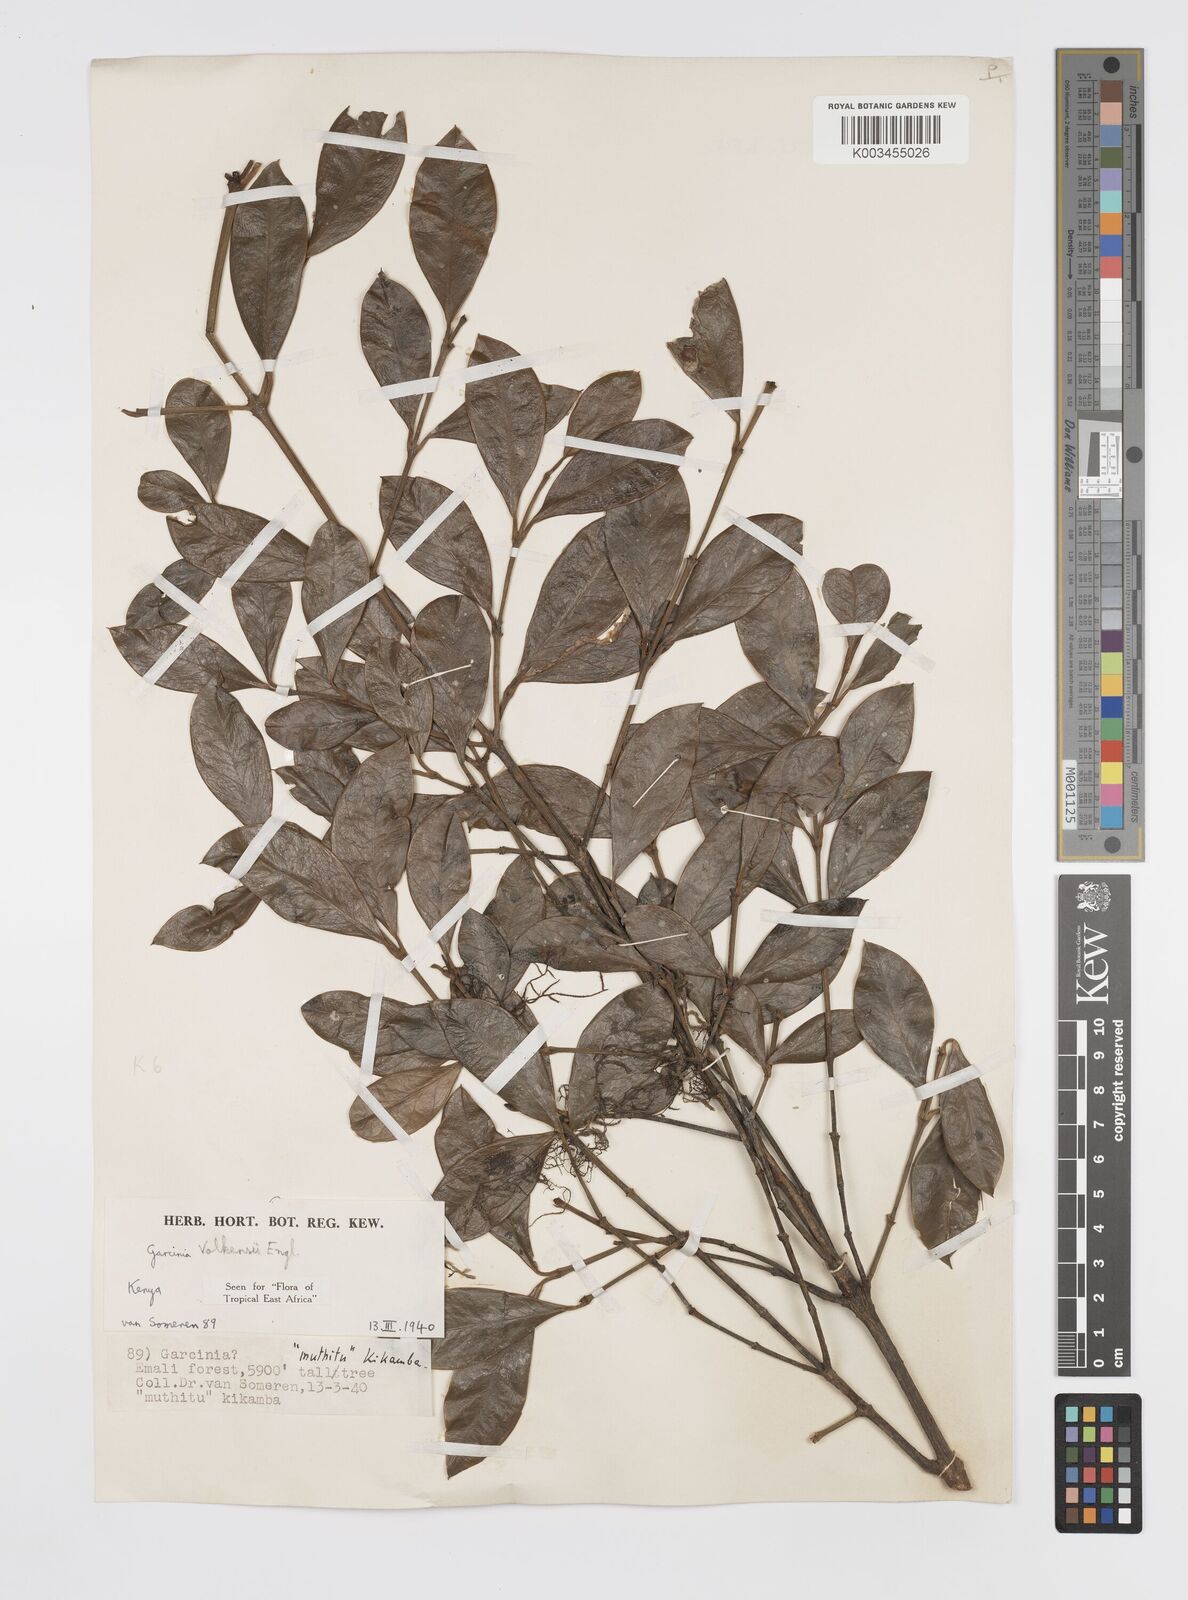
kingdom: Plantae
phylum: Tracheophyta
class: Magnoliopsida
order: Malpighiales
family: Clusiaceae
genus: Garcinia
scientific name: Garcinia volkensii
